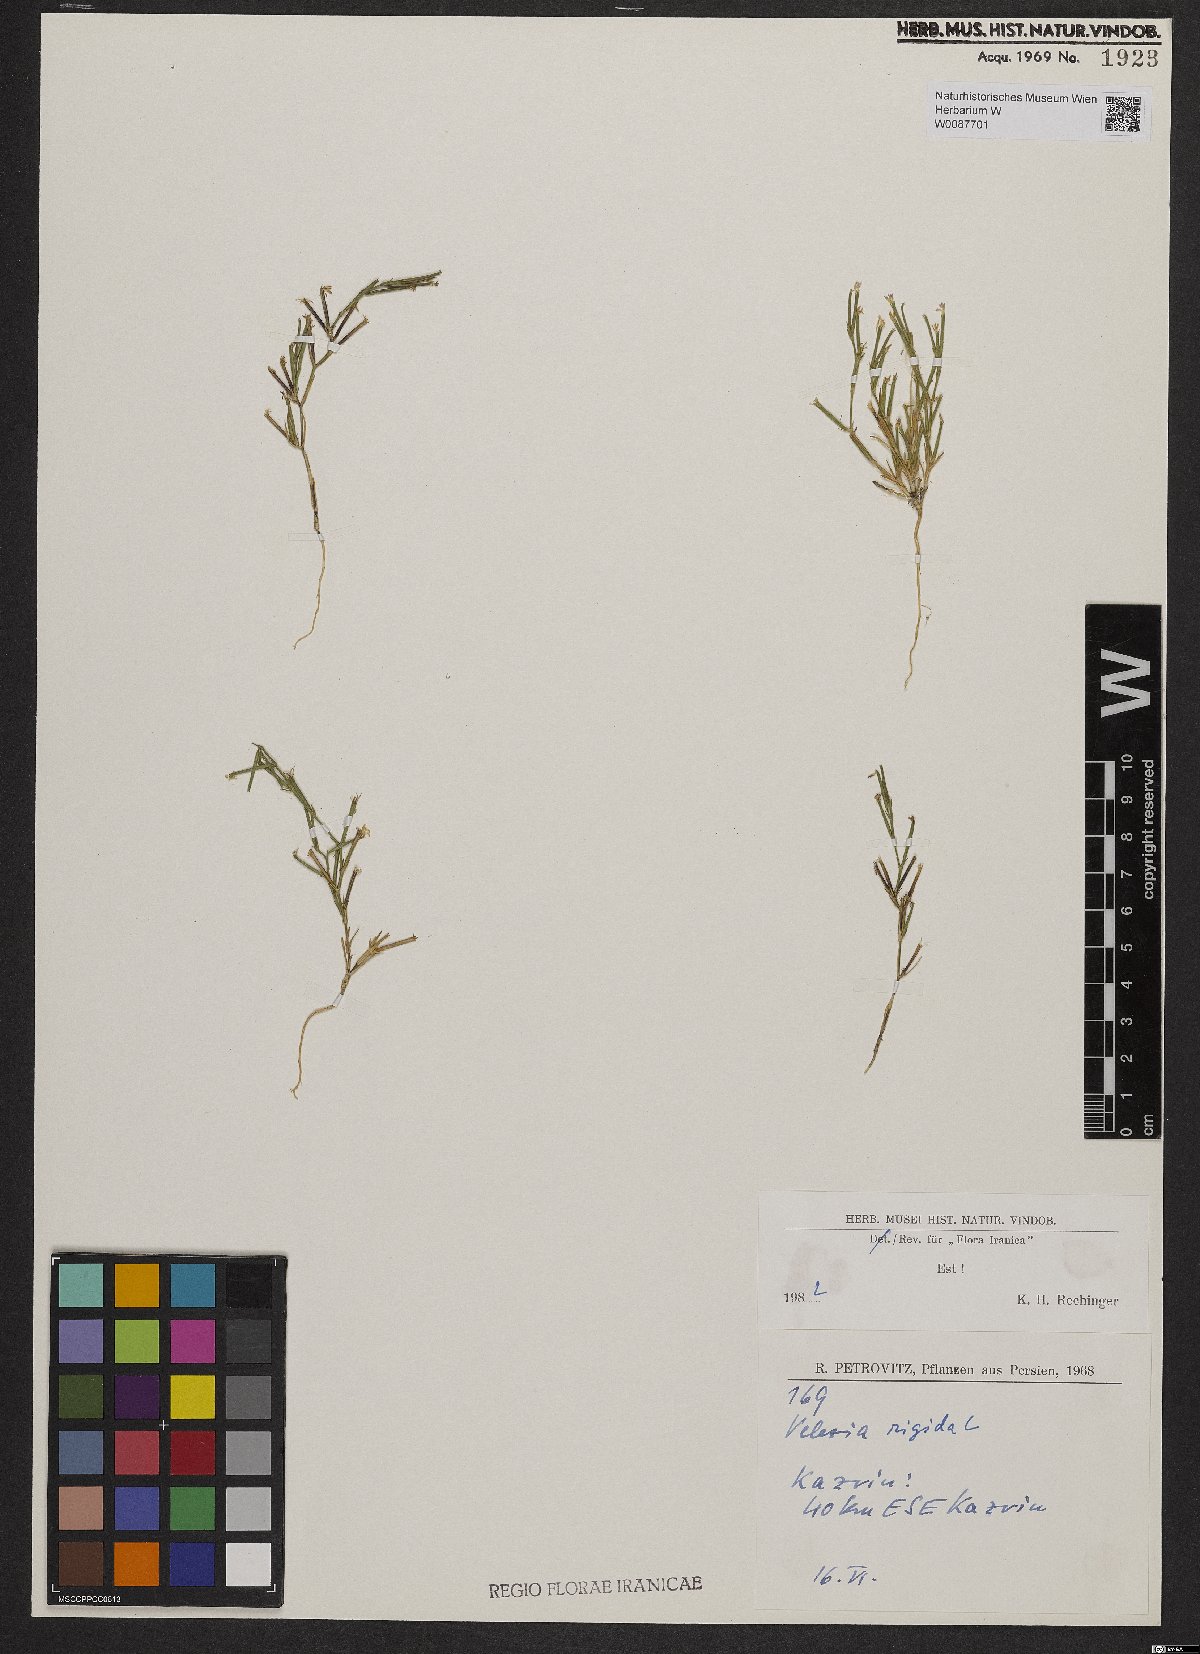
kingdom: Plantae
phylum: Tracheophyta
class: Magnoliopsida
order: Caryophyllales
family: Caryophyllaceae
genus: Dianthus
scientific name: Dianthus nudiflorus
